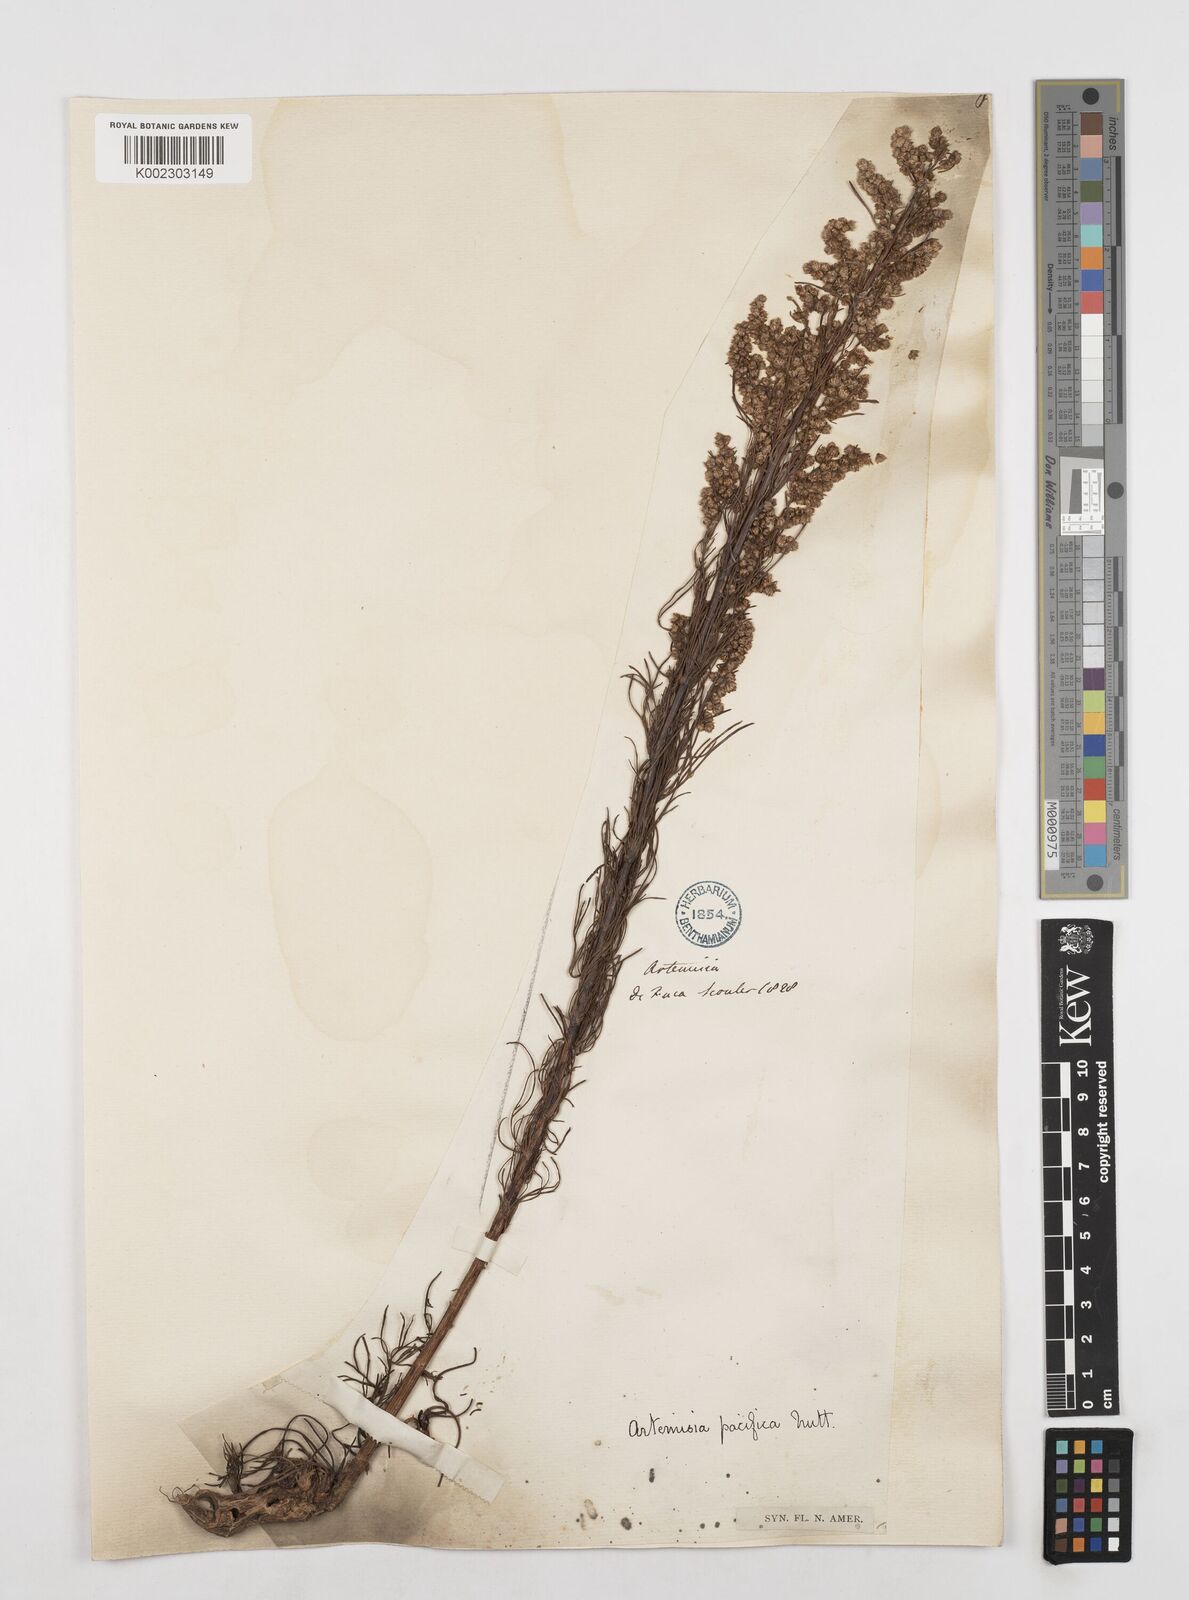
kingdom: Plantae
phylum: Tracheophyta
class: Magnoliopsida
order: Asterales
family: Asteraceae
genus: Artemisia
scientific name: Artemisia campestris
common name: Field wormwood
